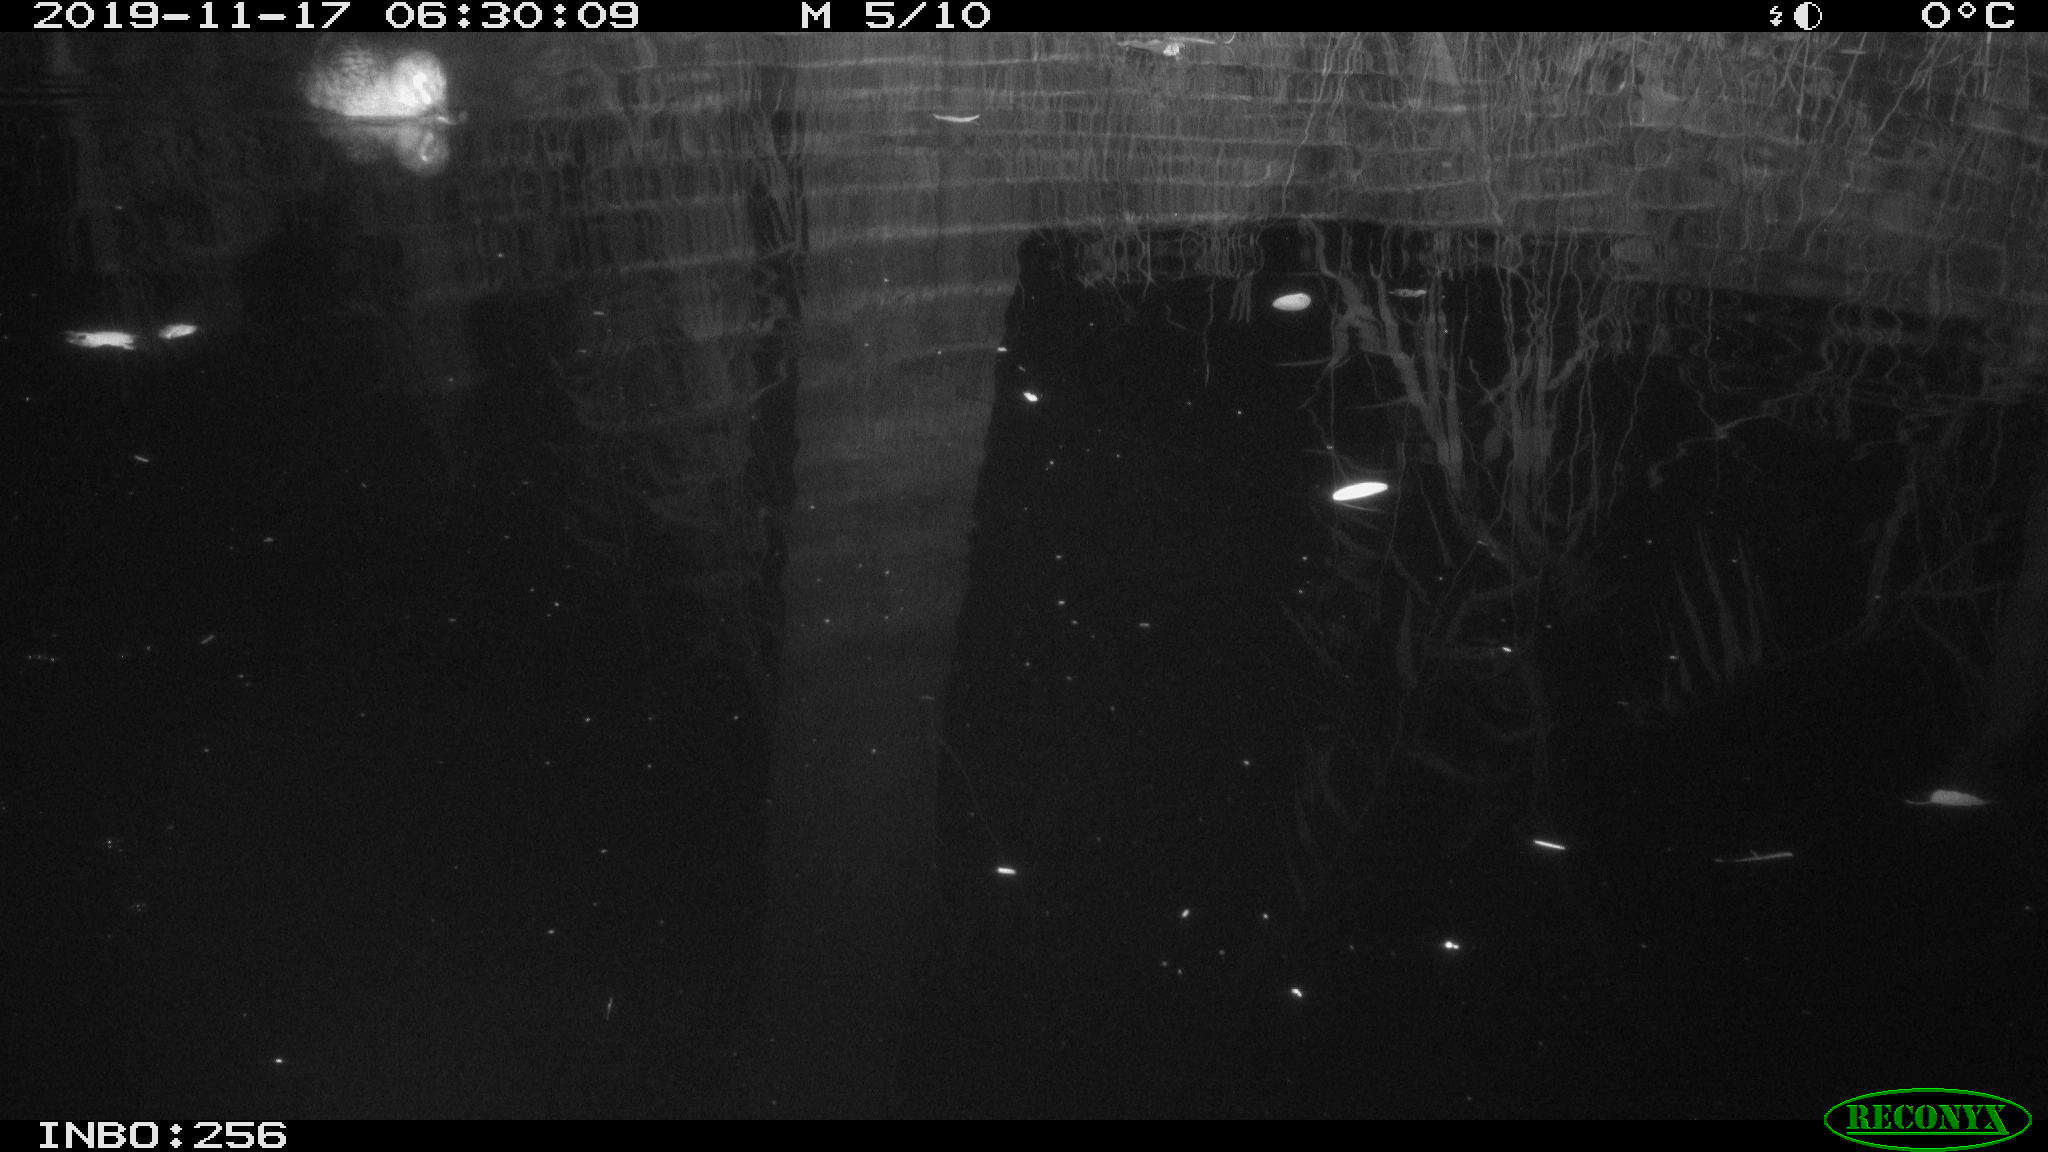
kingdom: Animalia
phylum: Chordata
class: Aves
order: Anseriformes
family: Anatidae
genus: Anas
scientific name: Anas platyrhynchos
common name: Mallard
